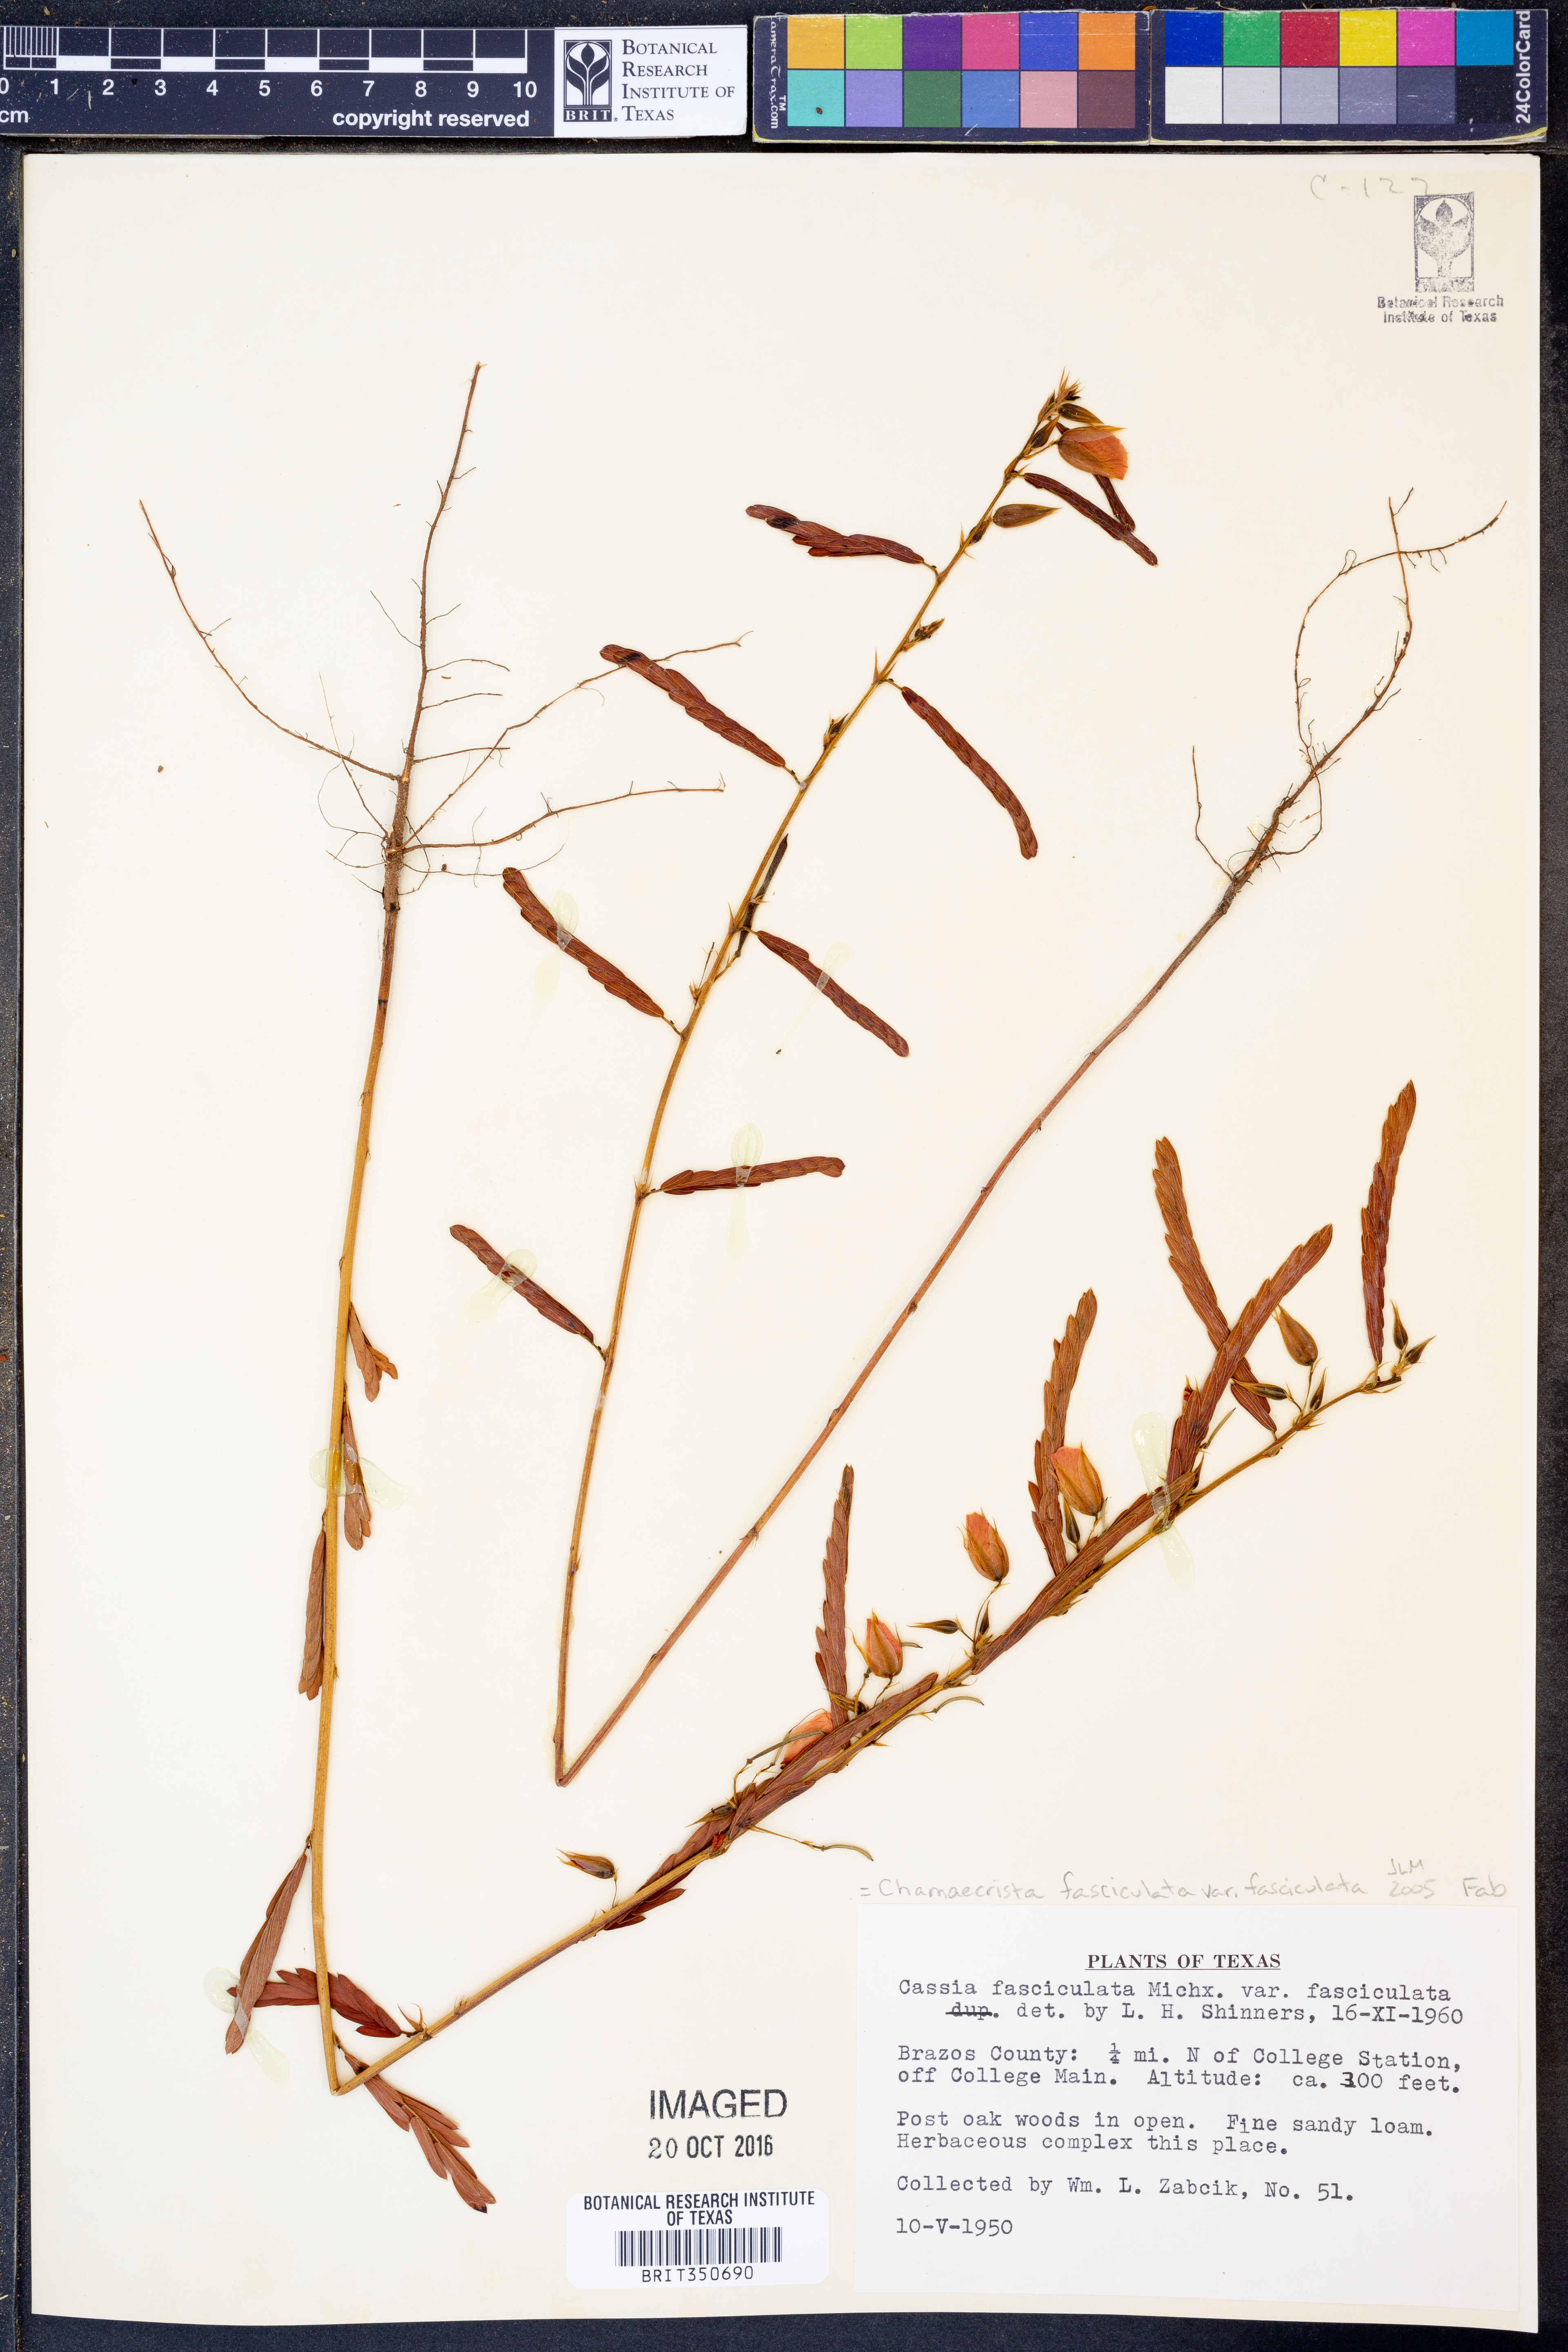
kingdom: Plantae
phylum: Tracheophyta
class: Magnoliopsida
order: Fabales
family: Fabaceae
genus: Chamaecrista
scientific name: Chamaecrista fasciculata
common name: Golden cassia
